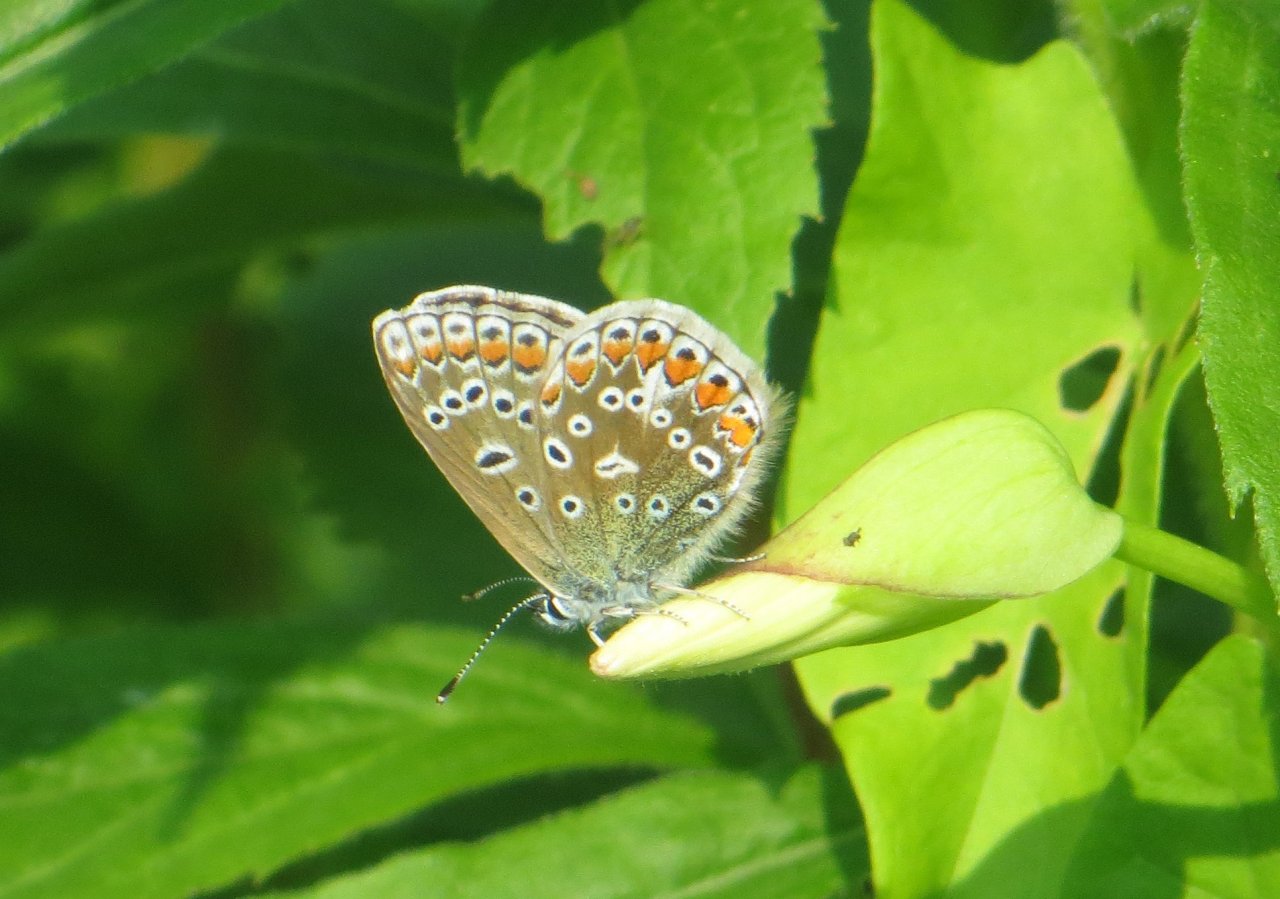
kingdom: Animalia
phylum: Arthropoda
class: Insecta
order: Lepidoptera
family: Lycaenidae
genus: Polyommatus
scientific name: Polyommatus icarus
